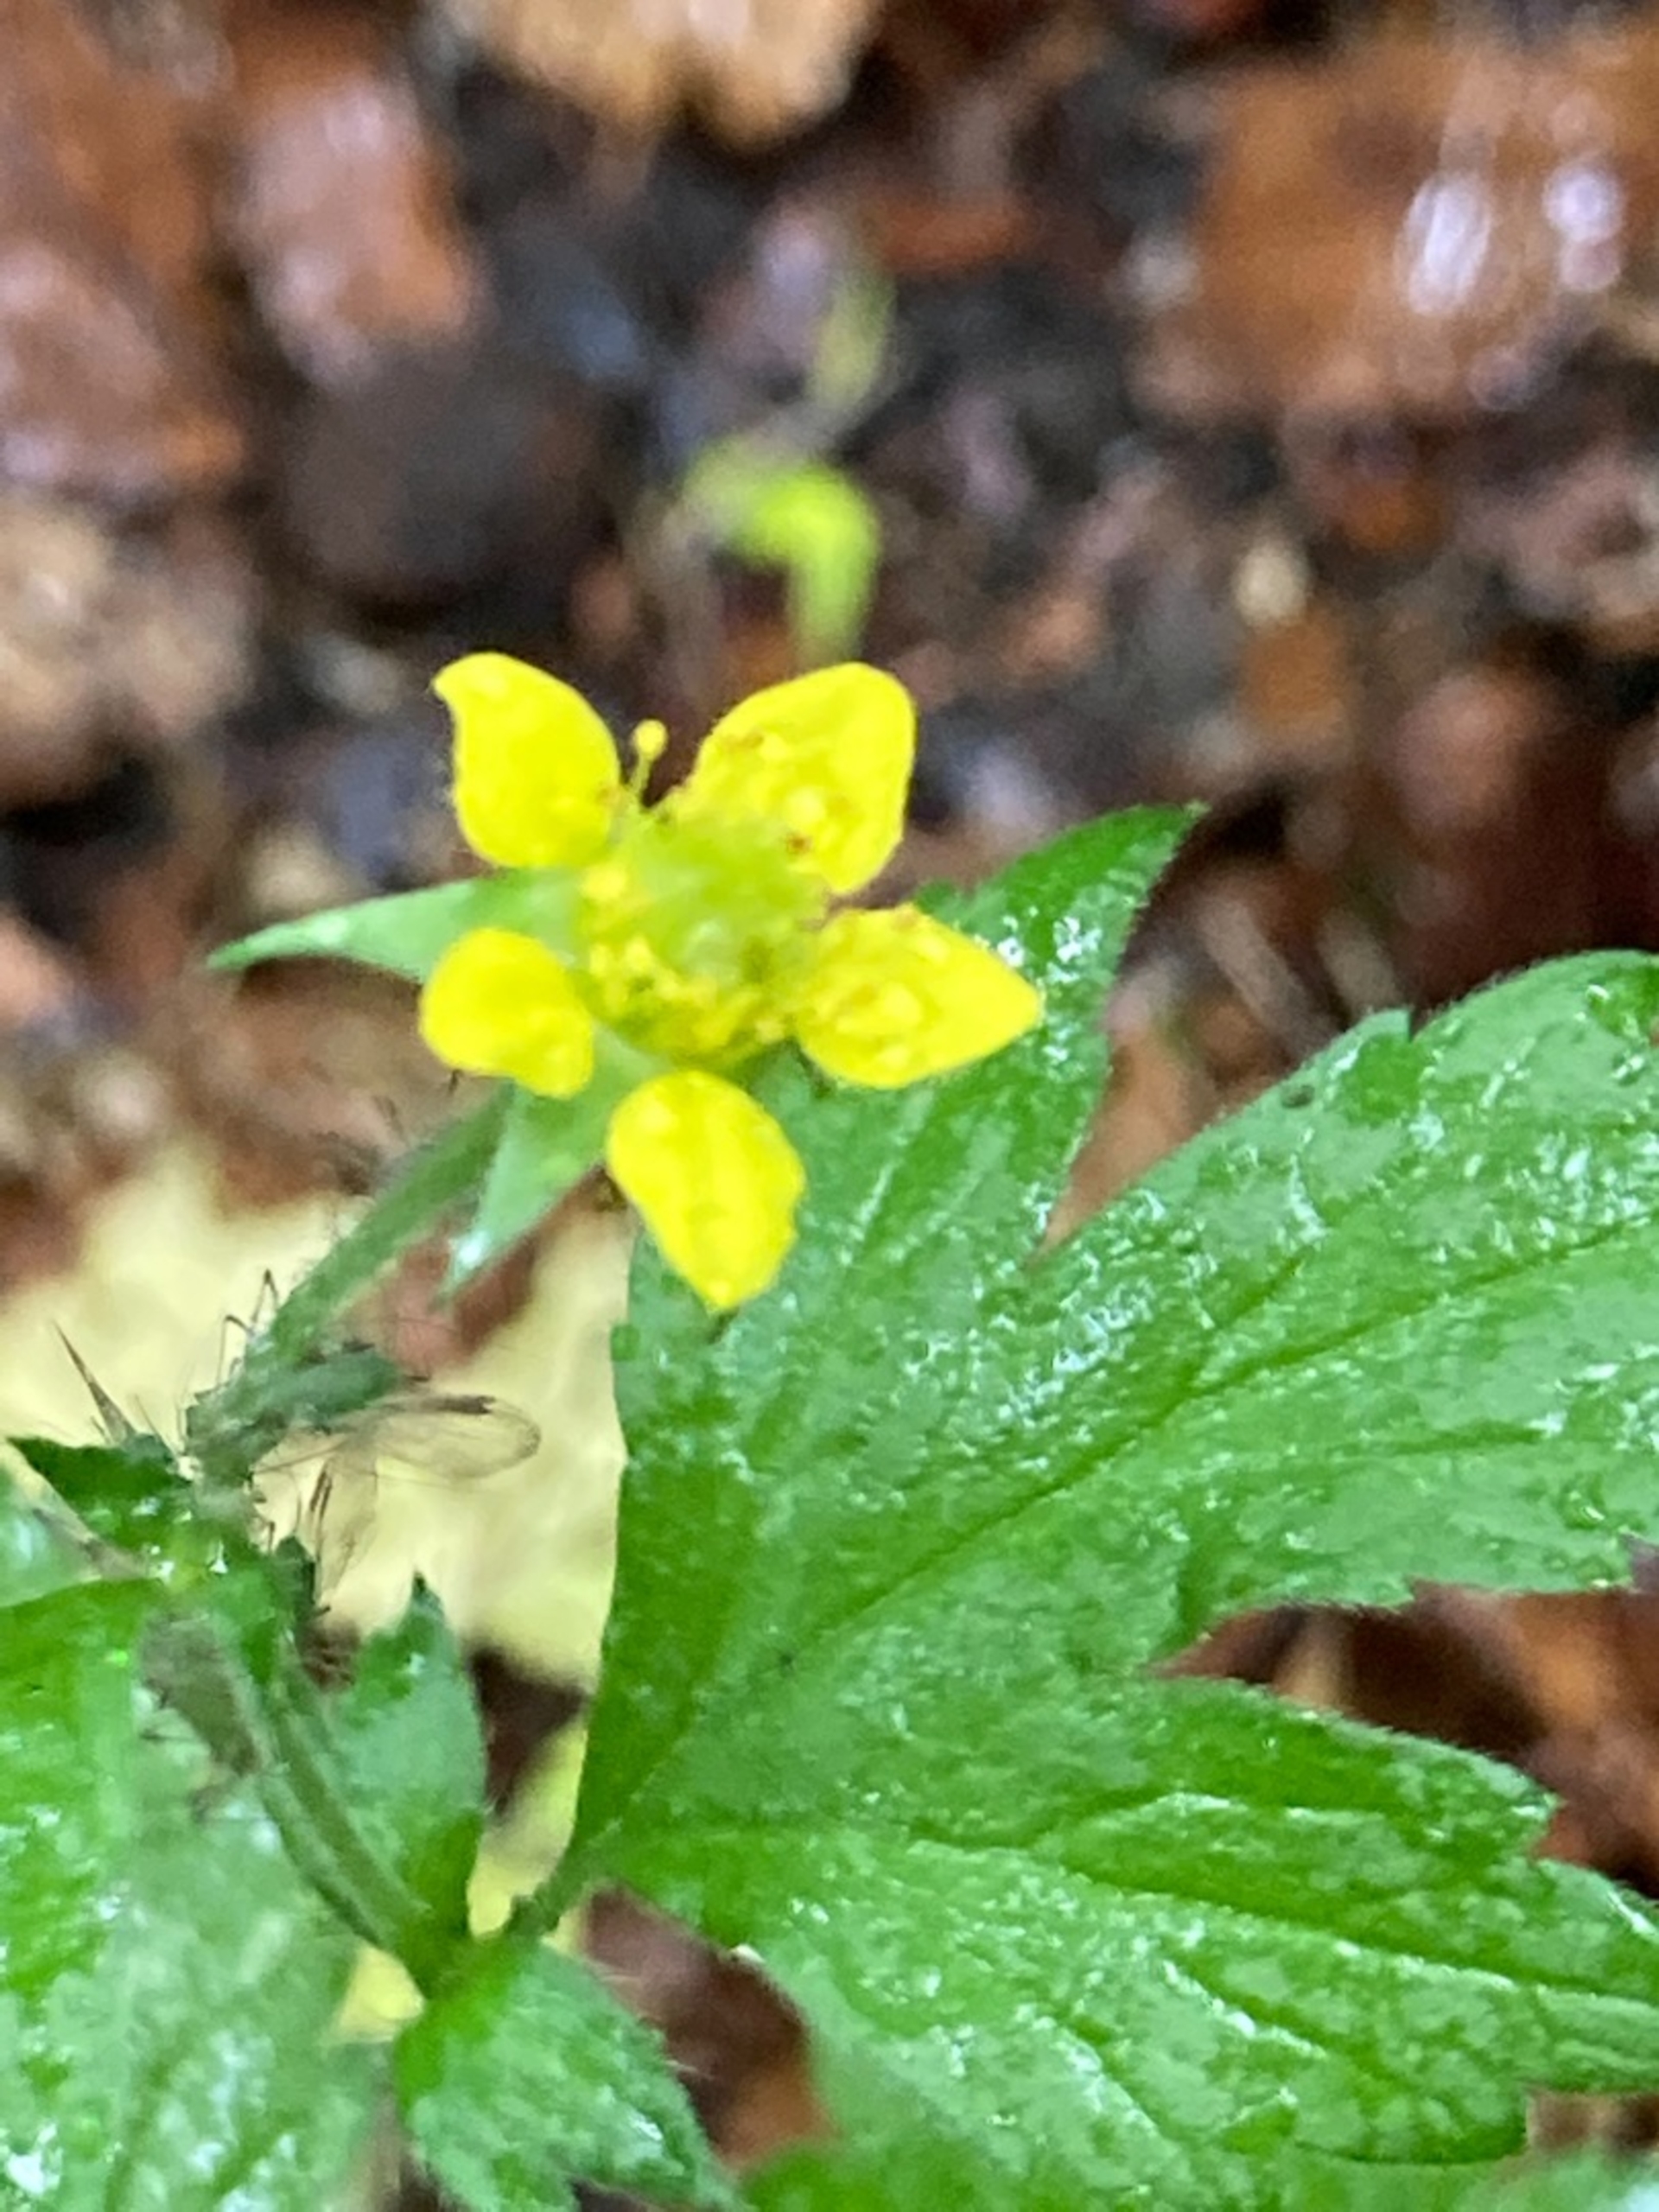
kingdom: Plantae
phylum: Tracheophyta
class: Magnoliopsida
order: Rosales
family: Rosaceae
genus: Geum
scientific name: Geum urbanum
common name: Feber-nellikerod
